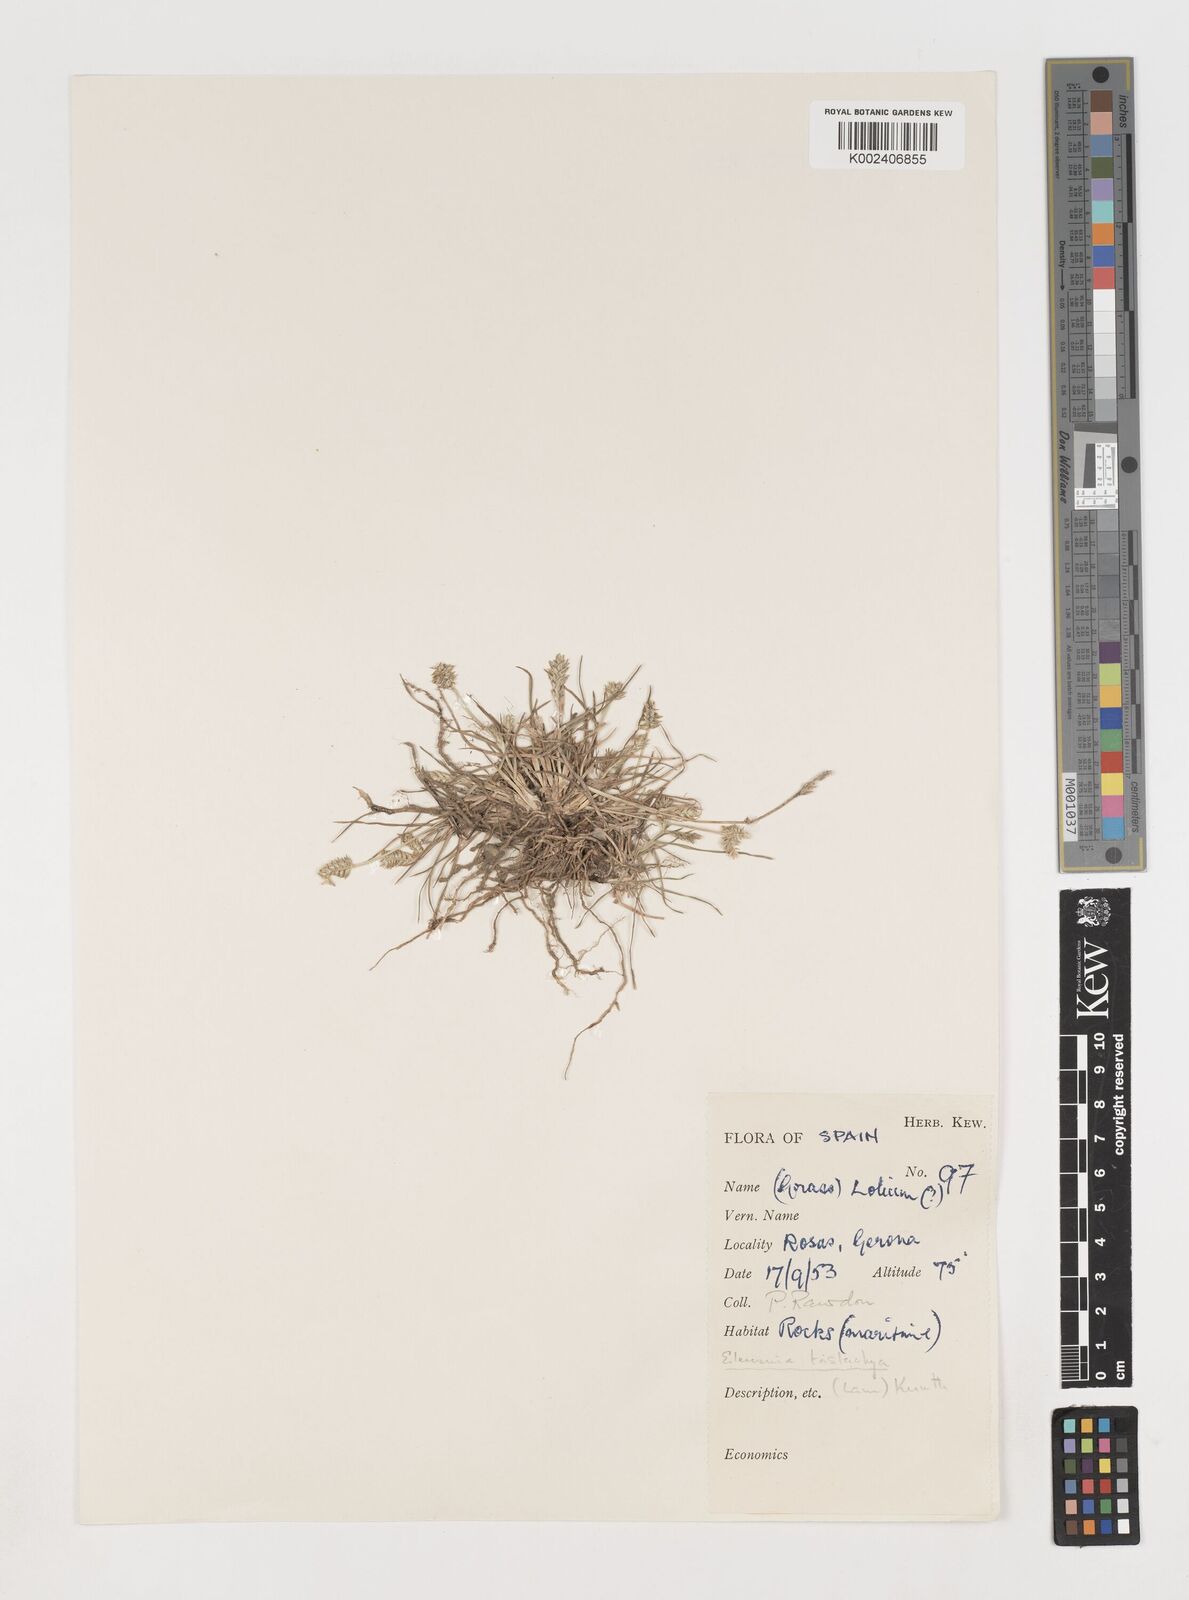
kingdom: Plantae
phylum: Tracheophyta
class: Liliopsida
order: Poales
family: Poaceae
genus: Eleusine
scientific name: Eleusine tristachya
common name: American yard-grass
